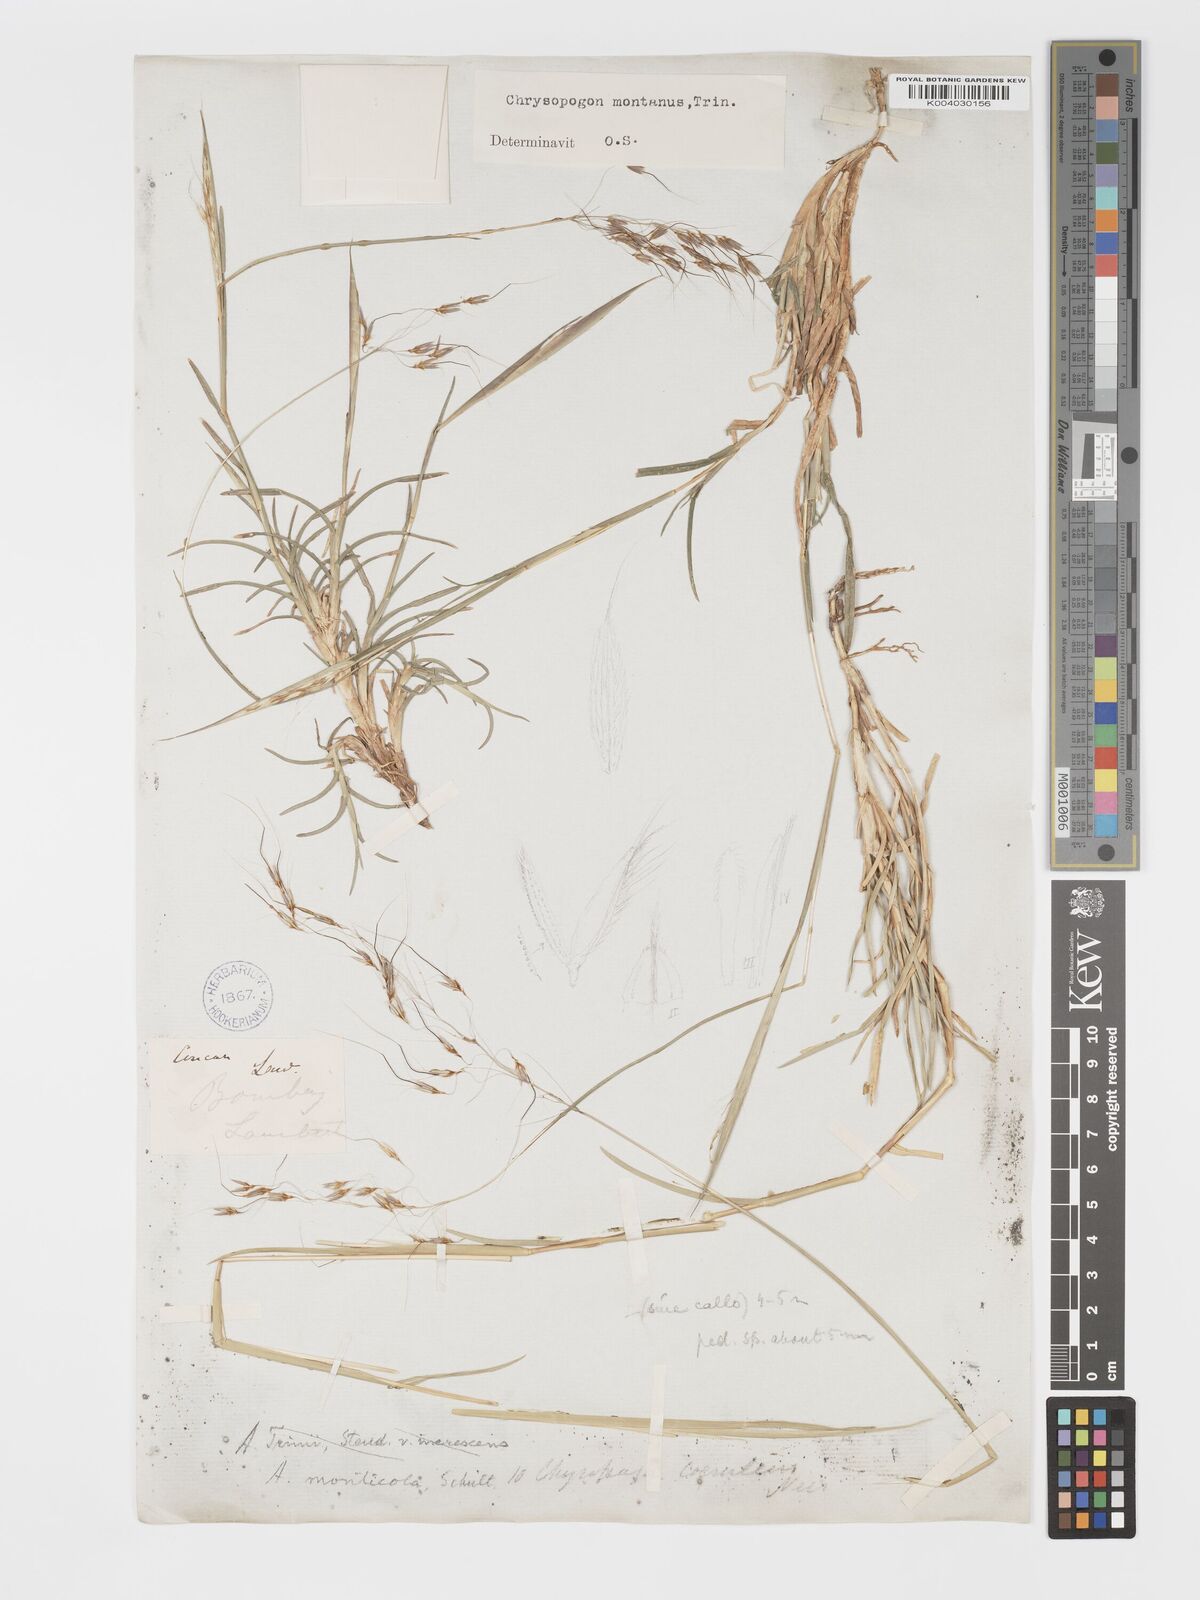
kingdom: Plantae
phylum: Tracheophyta
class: Liliopsida
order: Poales
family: Poaceae
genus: Chrysopogon
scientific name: Chrysopogon fulvus
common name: Red false beardgrass
